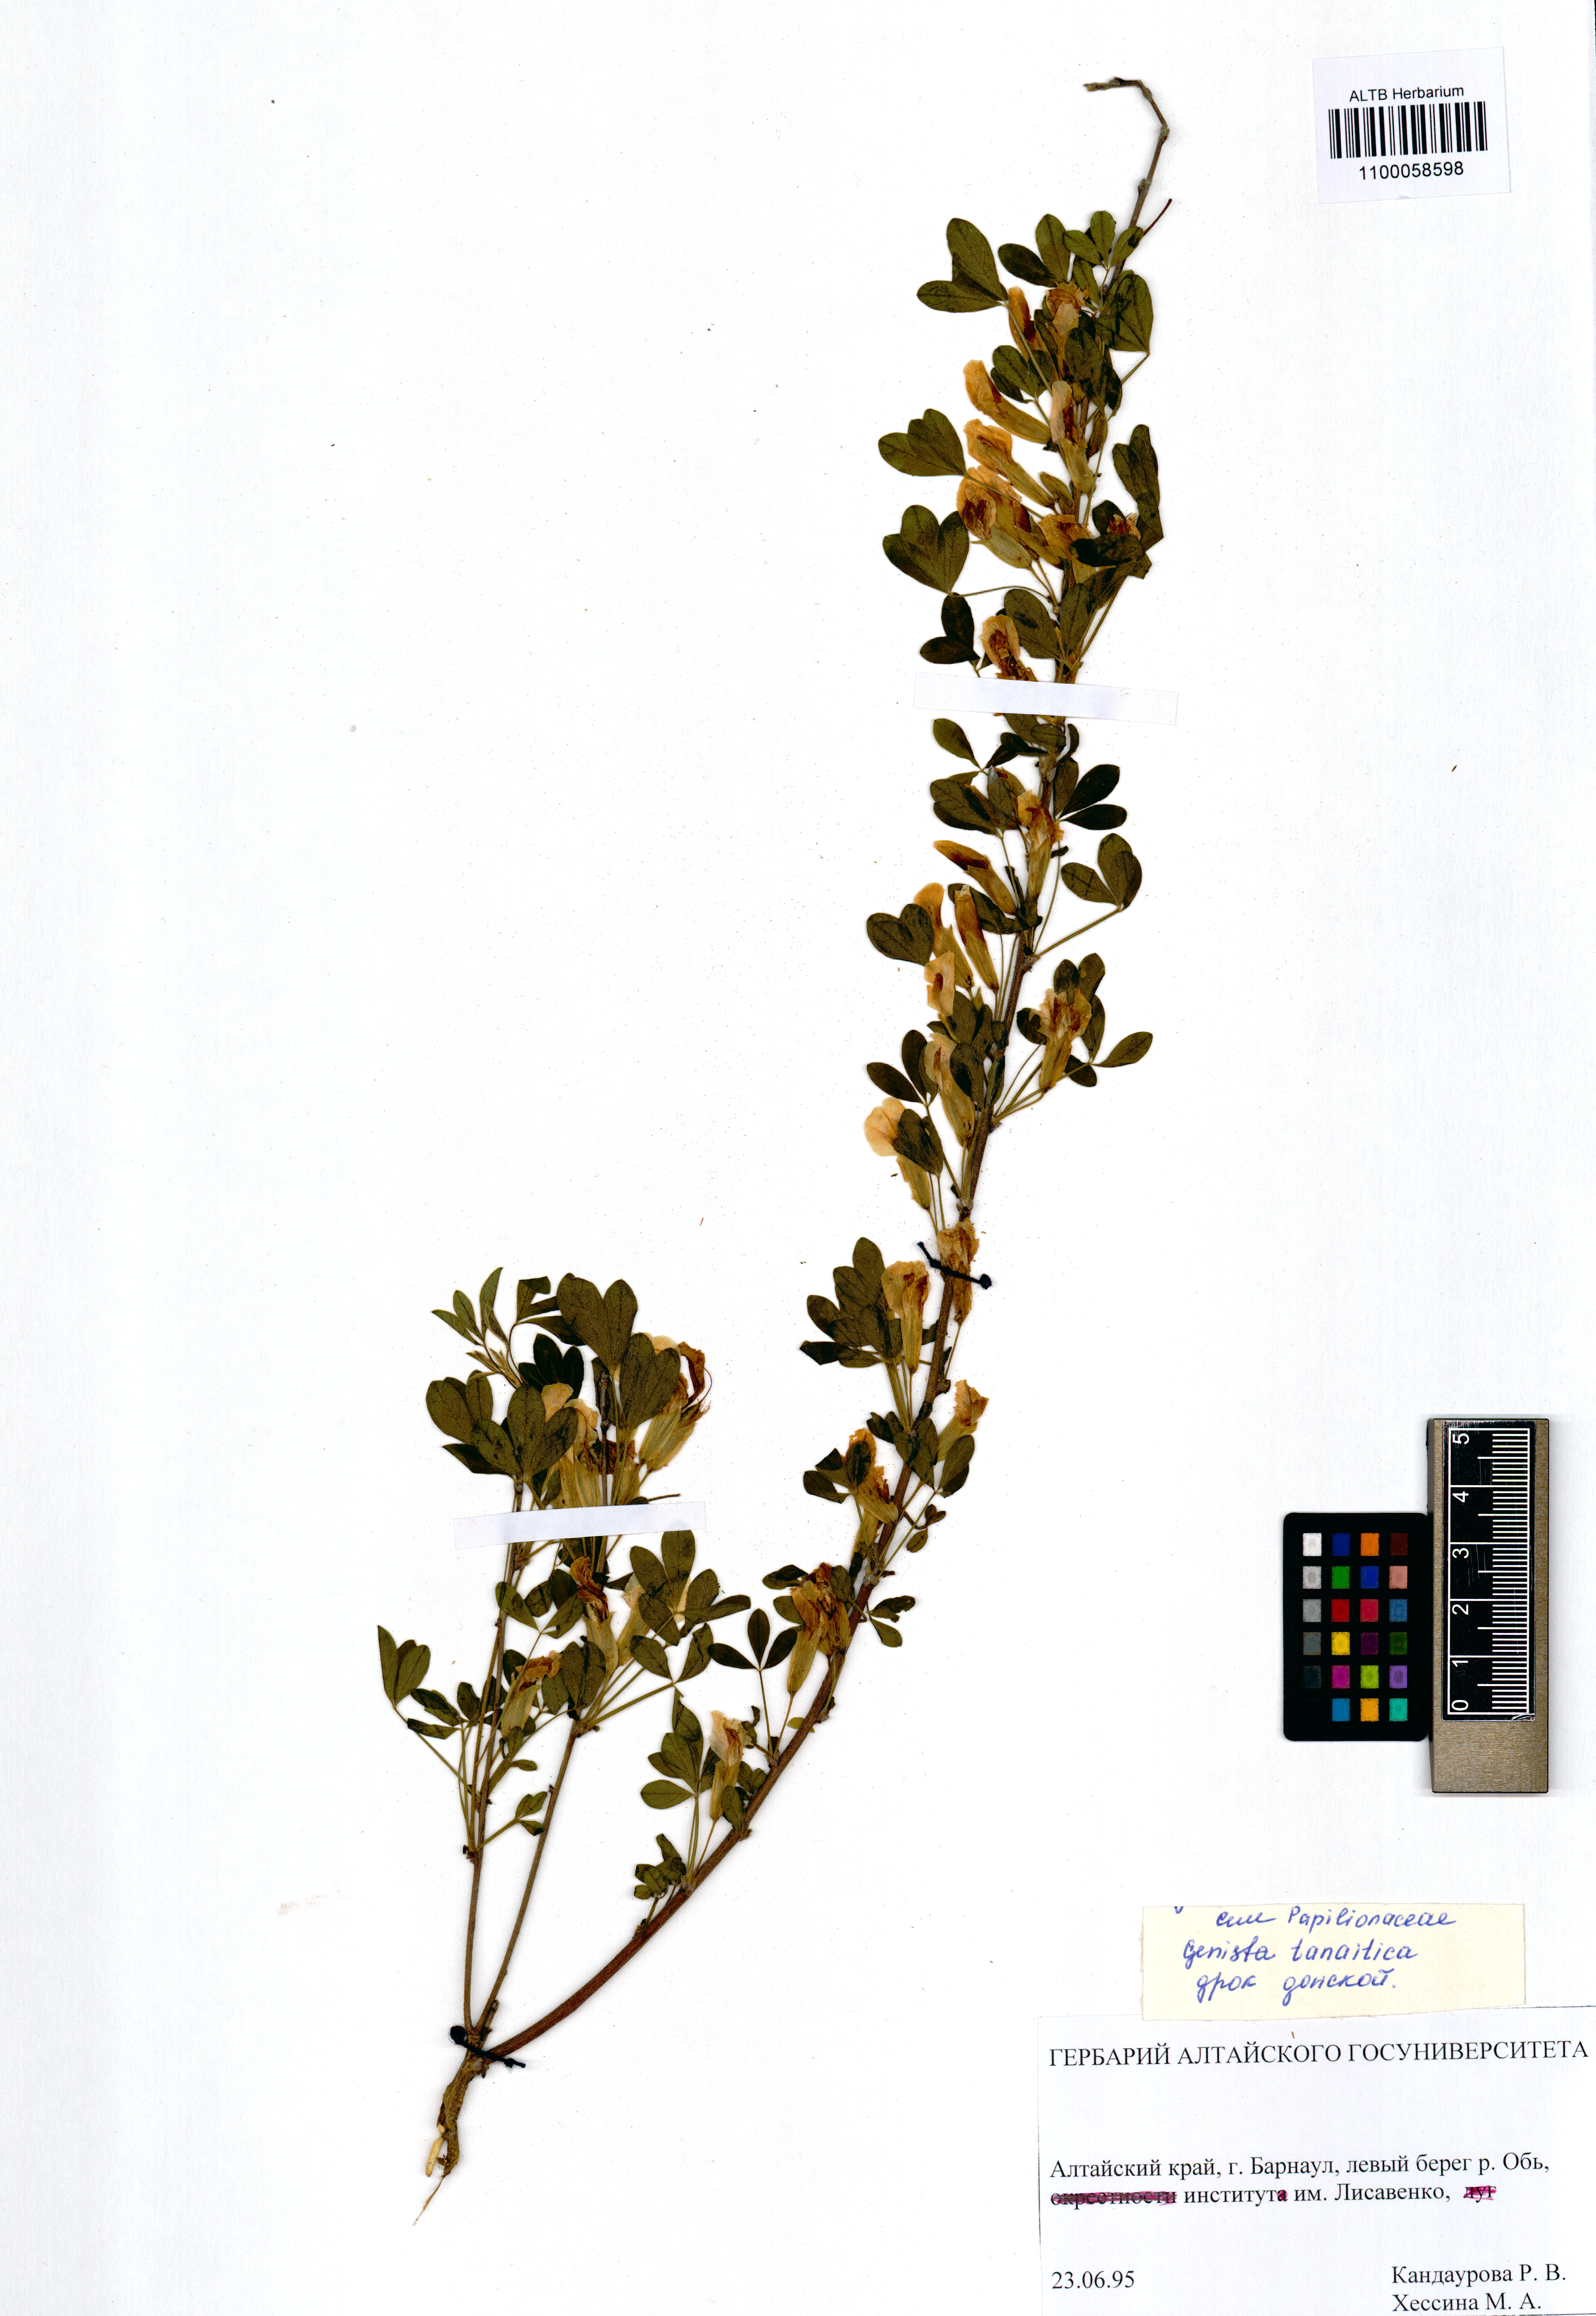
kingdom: Plantae
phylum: Tracheophyta
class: Magnoliopsida
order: Fabales
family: Fabaceae
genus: Genista
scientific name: Genista tinctoria
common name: Dyer's greenweed
